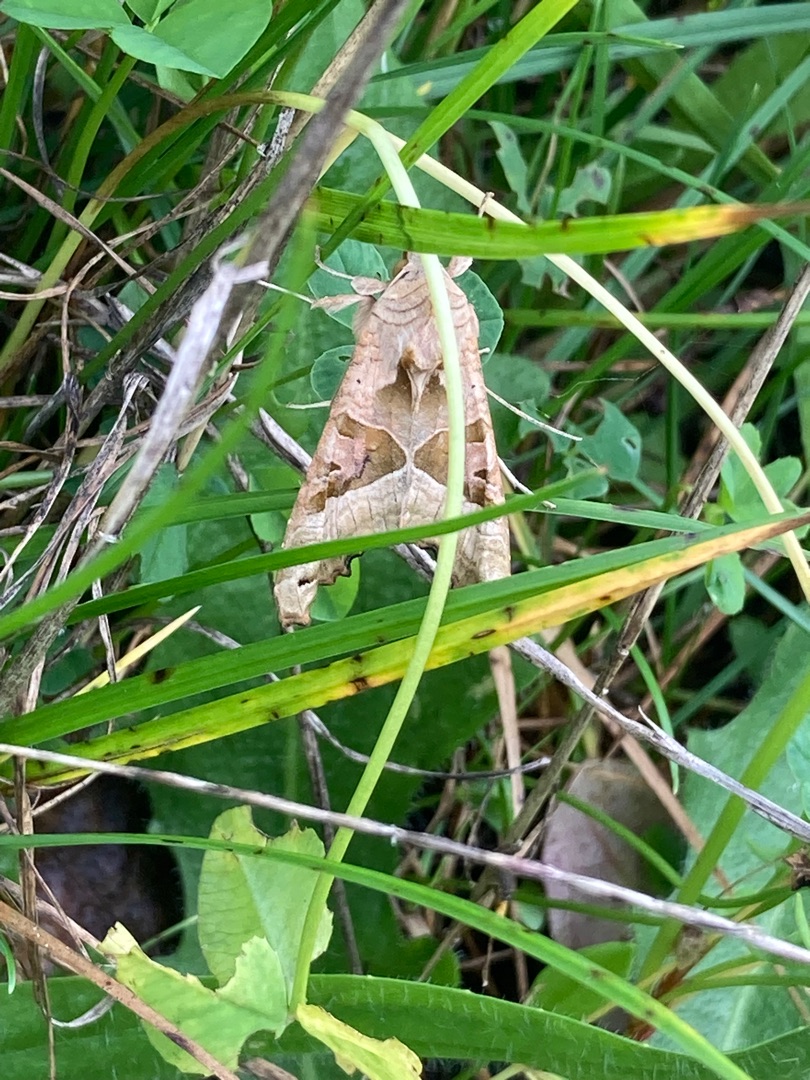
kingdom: Animalia
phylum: Arthropoda
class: Insecta
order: Lepidoptera
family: Noctuidae
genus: Phlogophora
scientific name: Phlogophora meticulosa
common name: Agatugle
